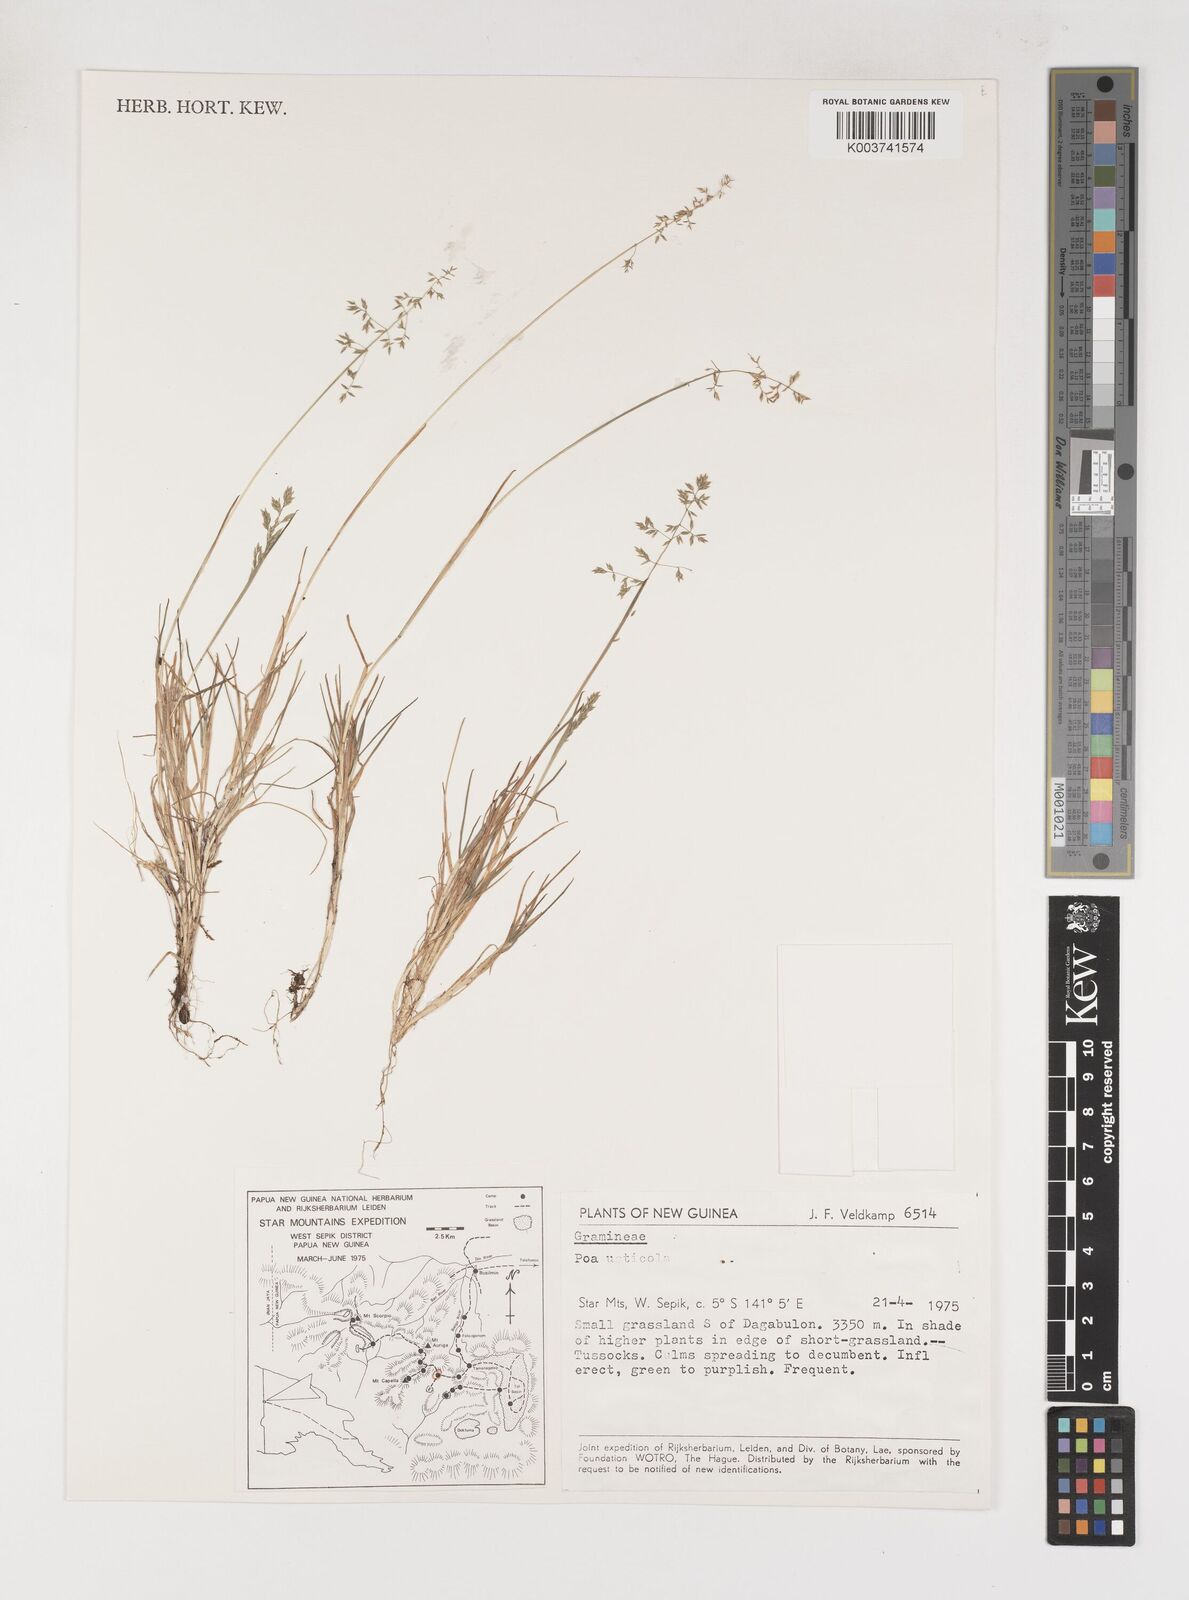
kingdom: Plantae
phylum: Tracheophyta
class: Liliopsida
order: Poales
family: Poaceae
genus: Poa
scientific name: Poa
